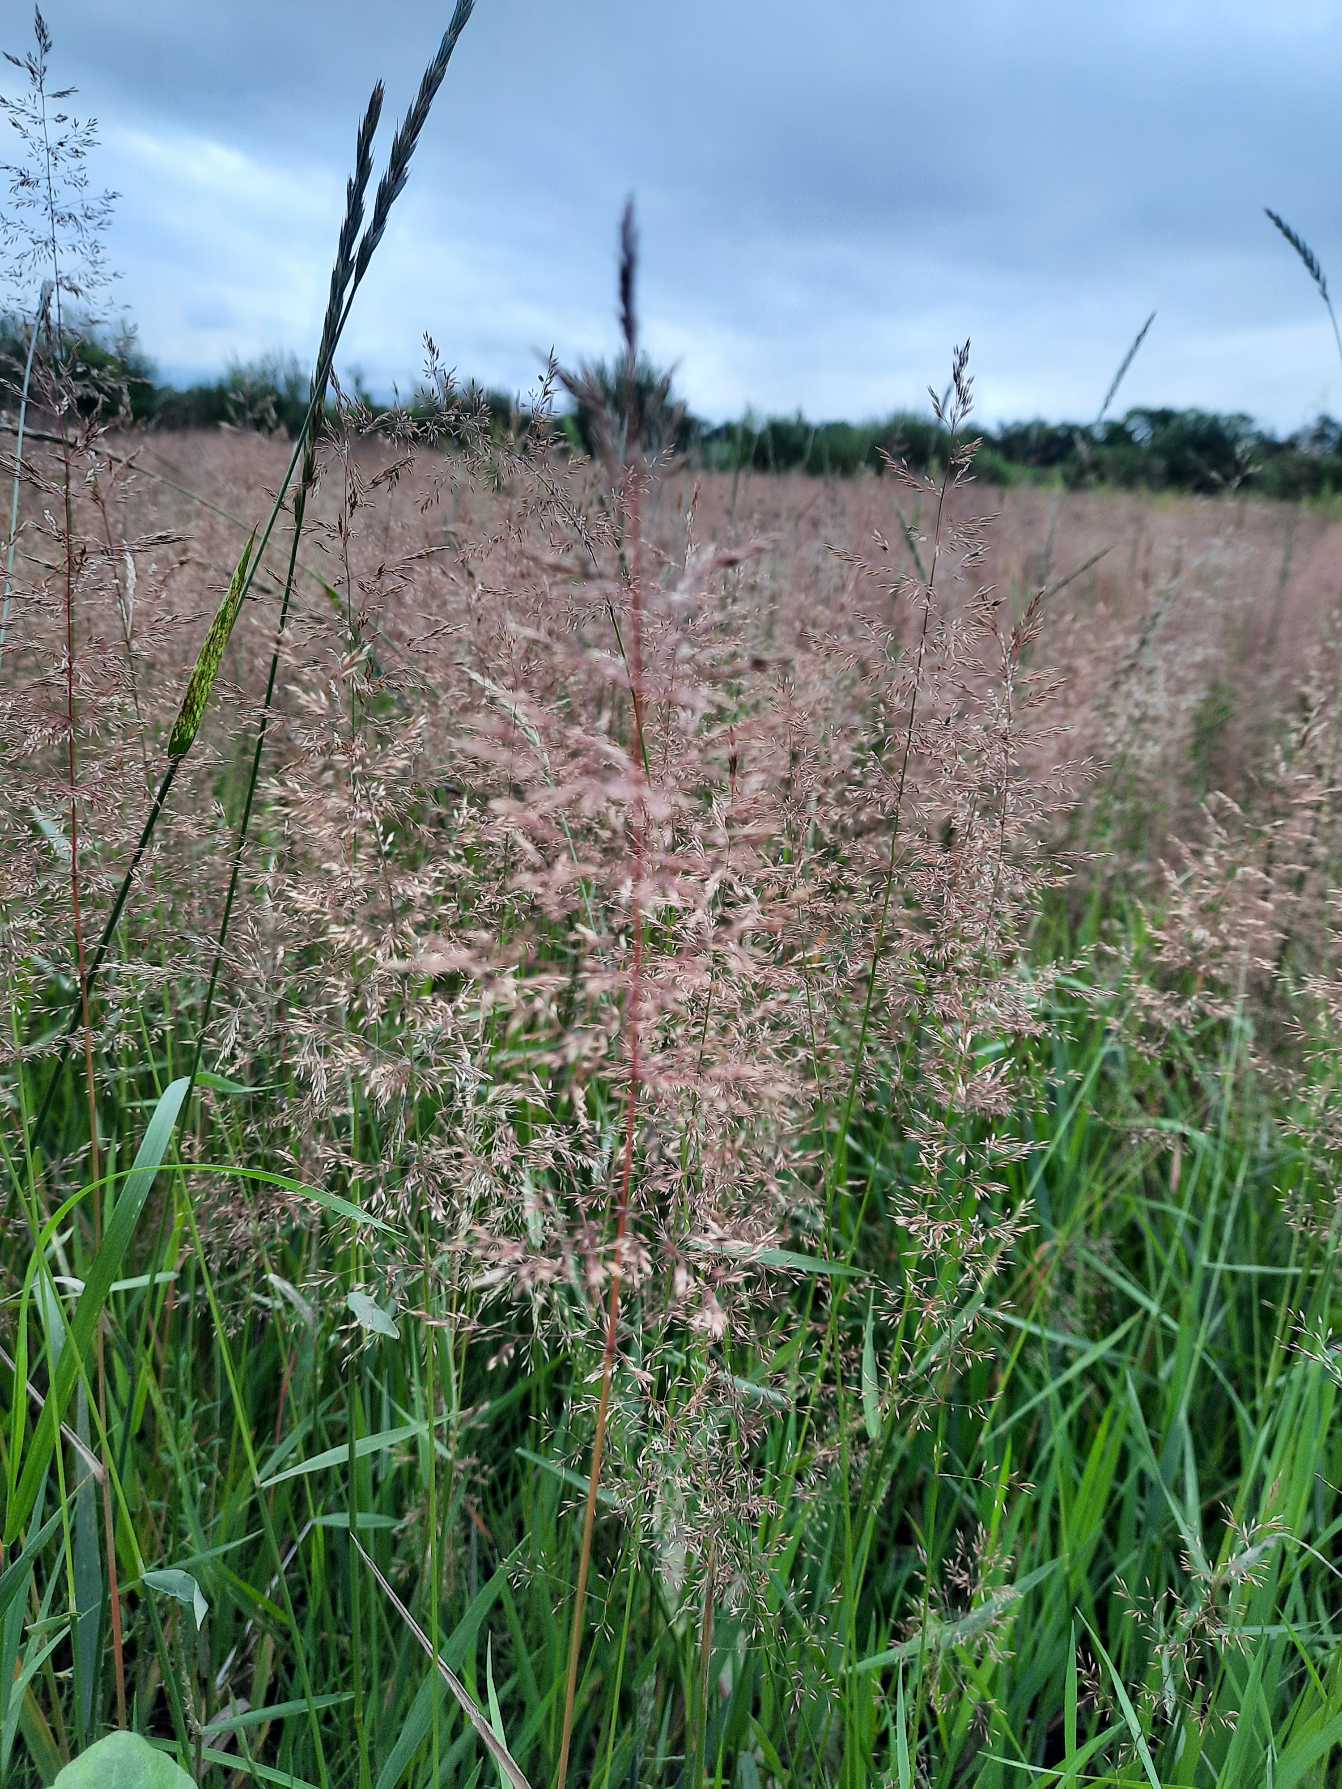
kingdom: Plantae
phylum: Tracheophyta
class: Liliopsida
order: Poales
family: Poaceae
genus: Agrostis
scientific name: Agrostis
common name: Hveneslægten
